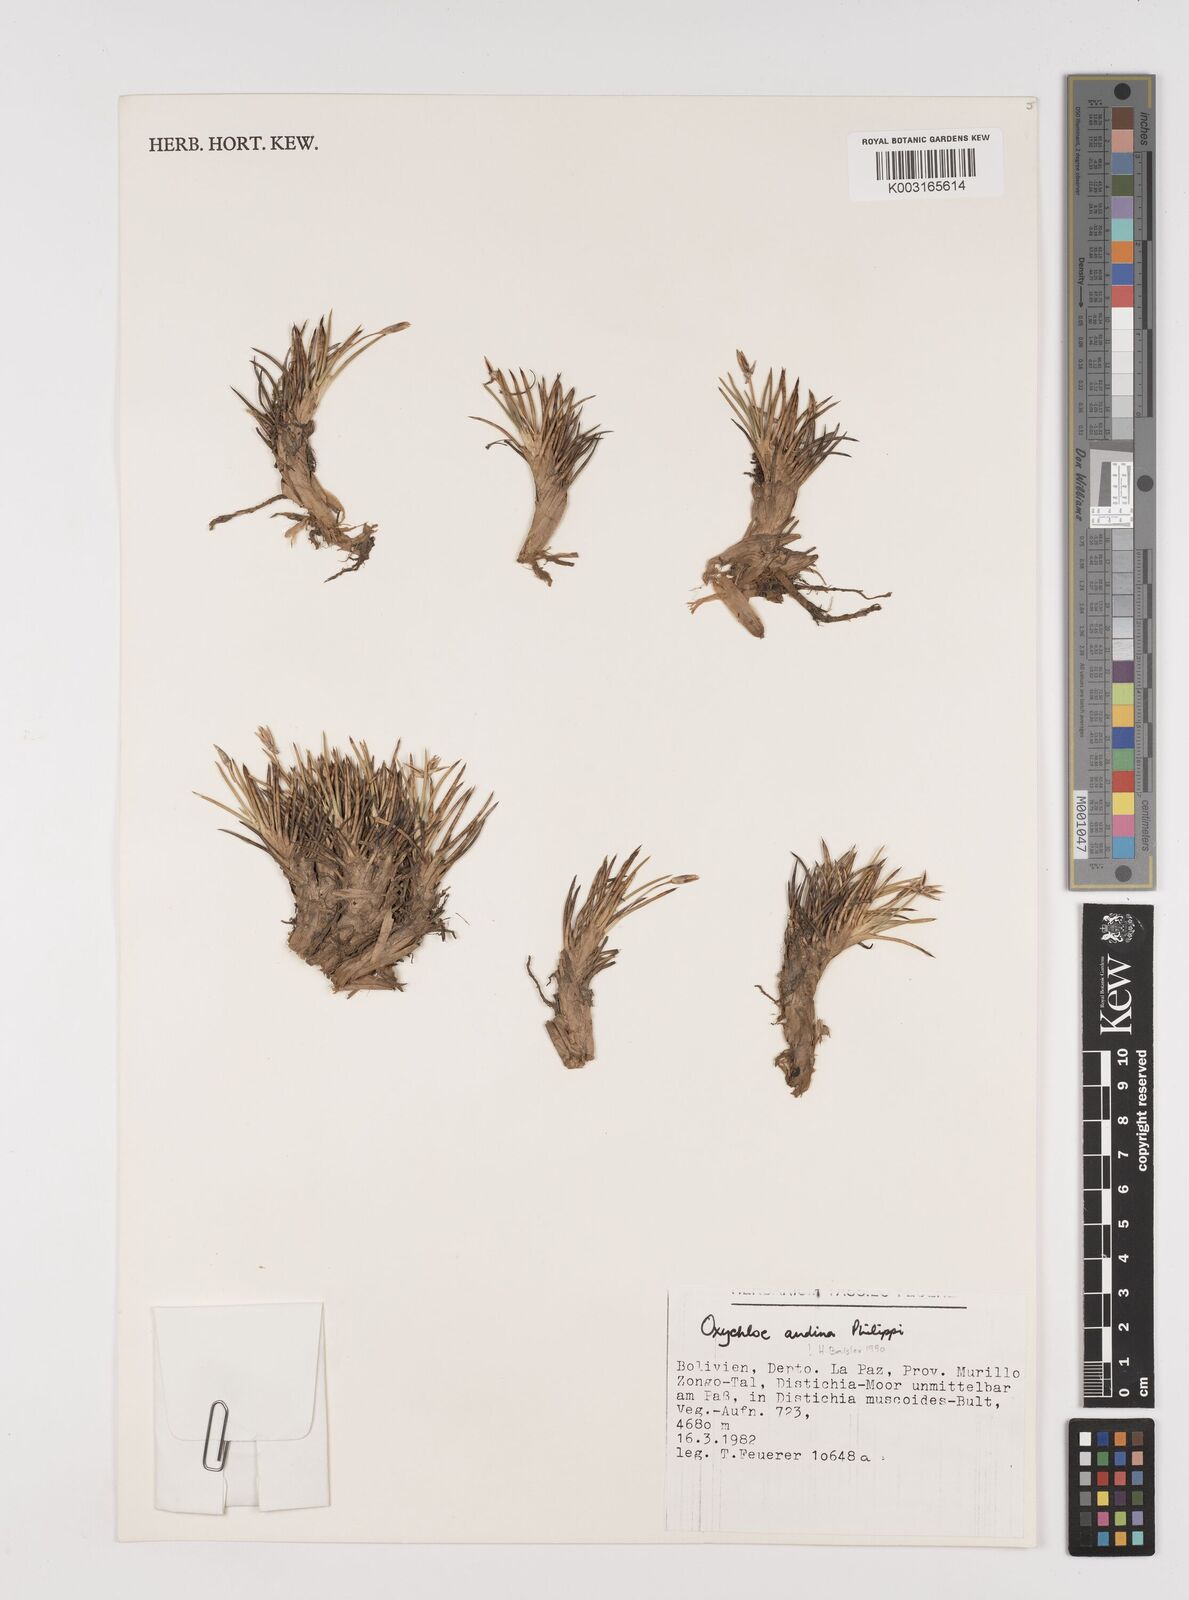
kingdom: Plantae
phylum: Tracheophyta
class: Liliopsida
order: Poales
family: Juncaceae
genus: Oxychloe
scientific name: Oxychloe andina
